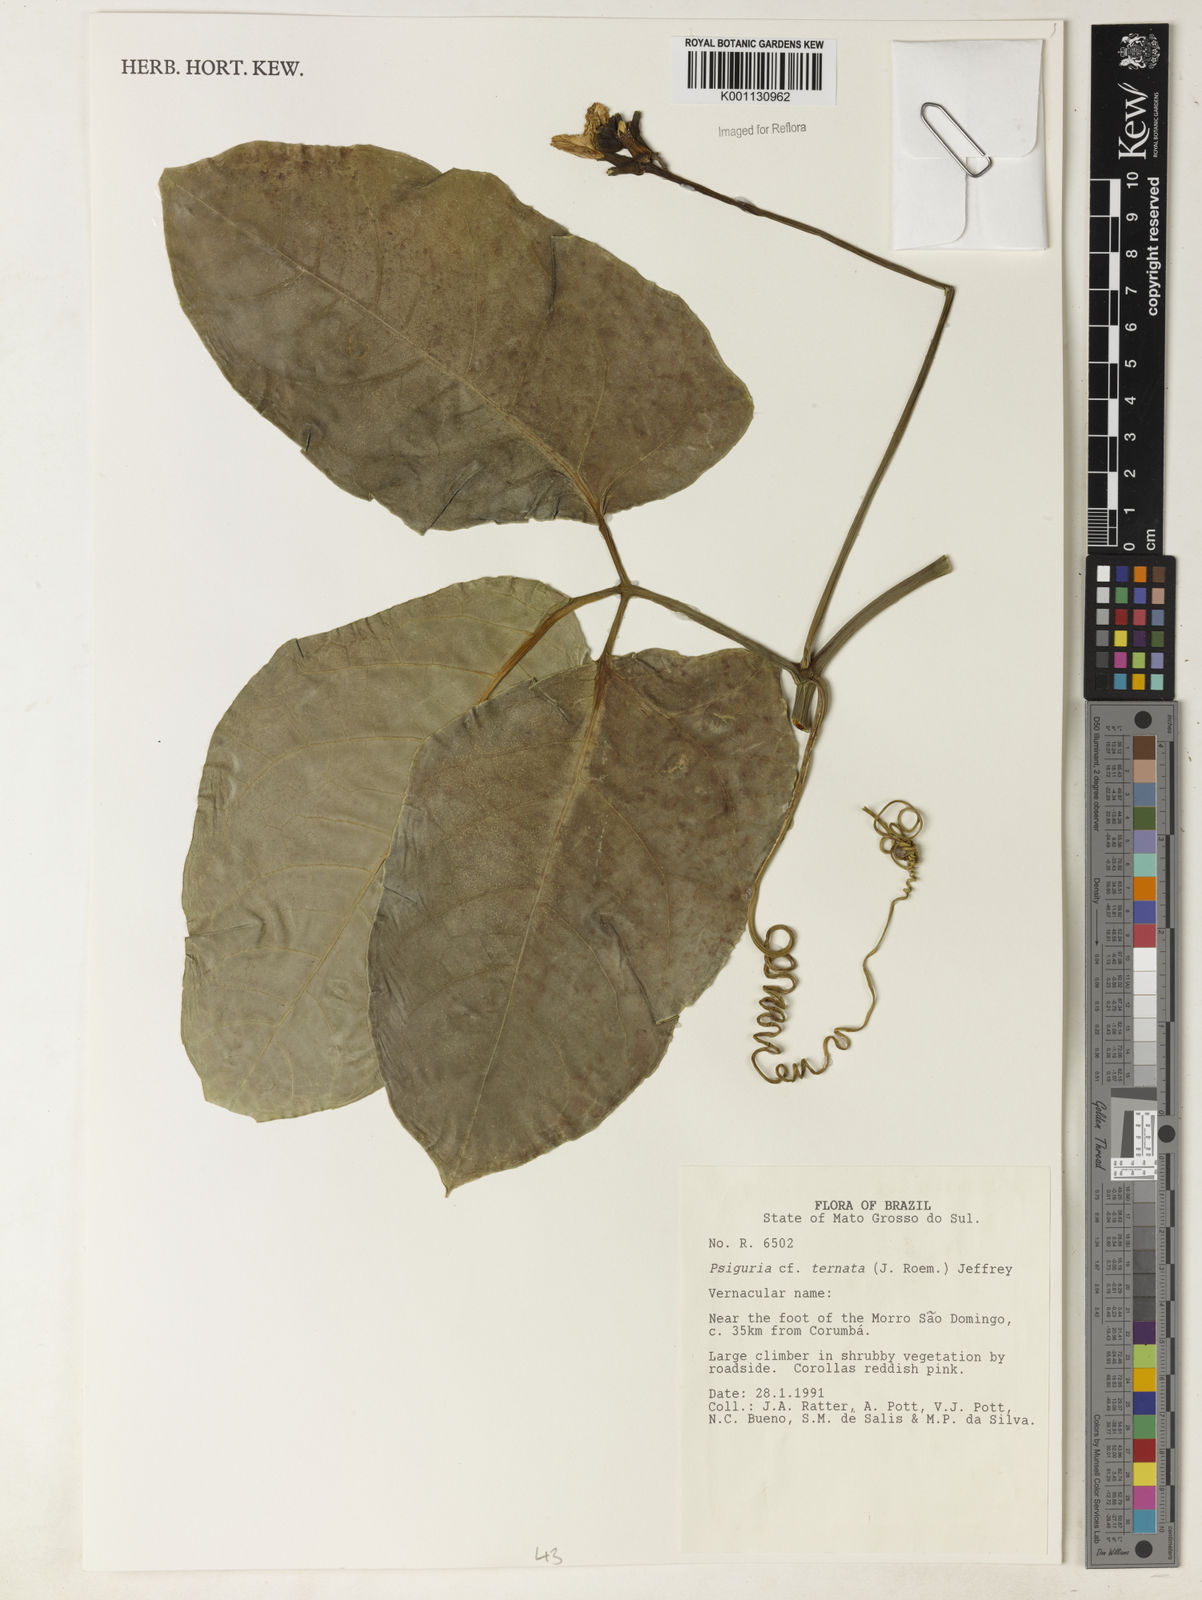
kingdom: Plantae
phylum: Tracheophyta
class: Magnoliopsida
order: Cucurbitales
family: Cucurbitaceae
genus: Psiguria
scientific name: Psiguria ternata
